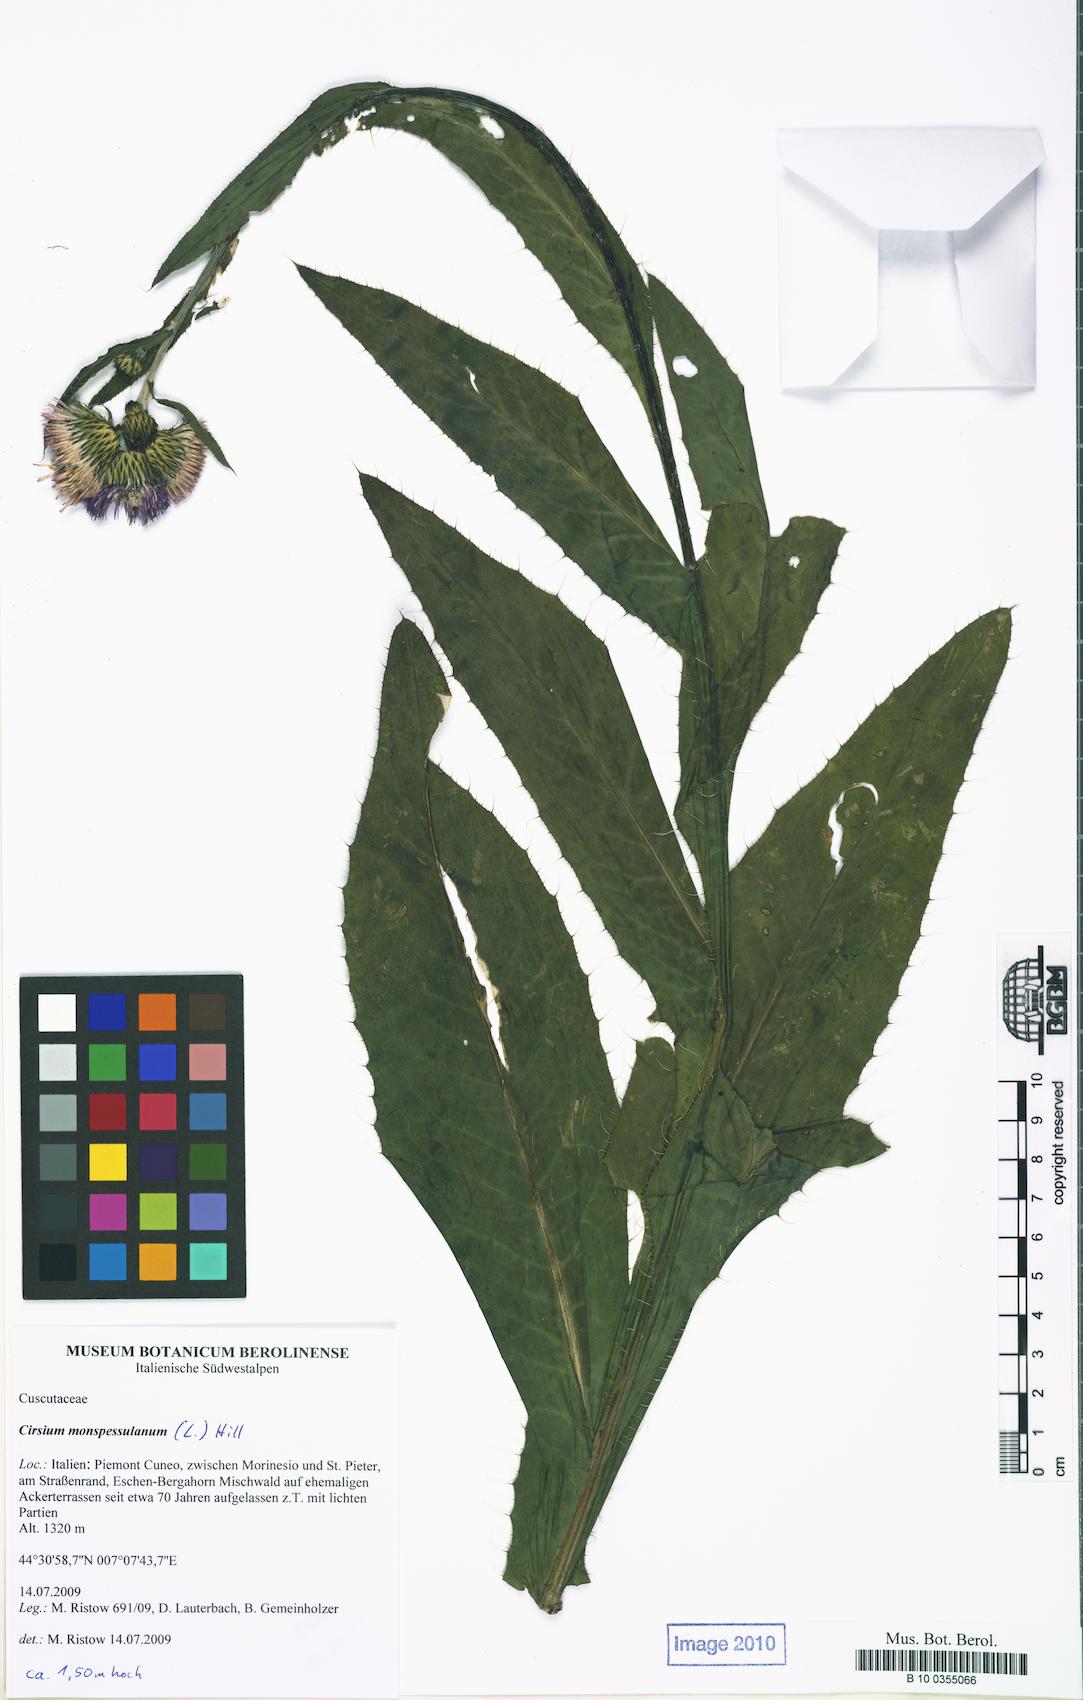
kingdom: Plantae
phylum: Tracheophyta
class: Magnoliopsida
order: Asterales
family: Asteraceae
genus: Cirsium
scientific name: Cirsium monspessulanum
